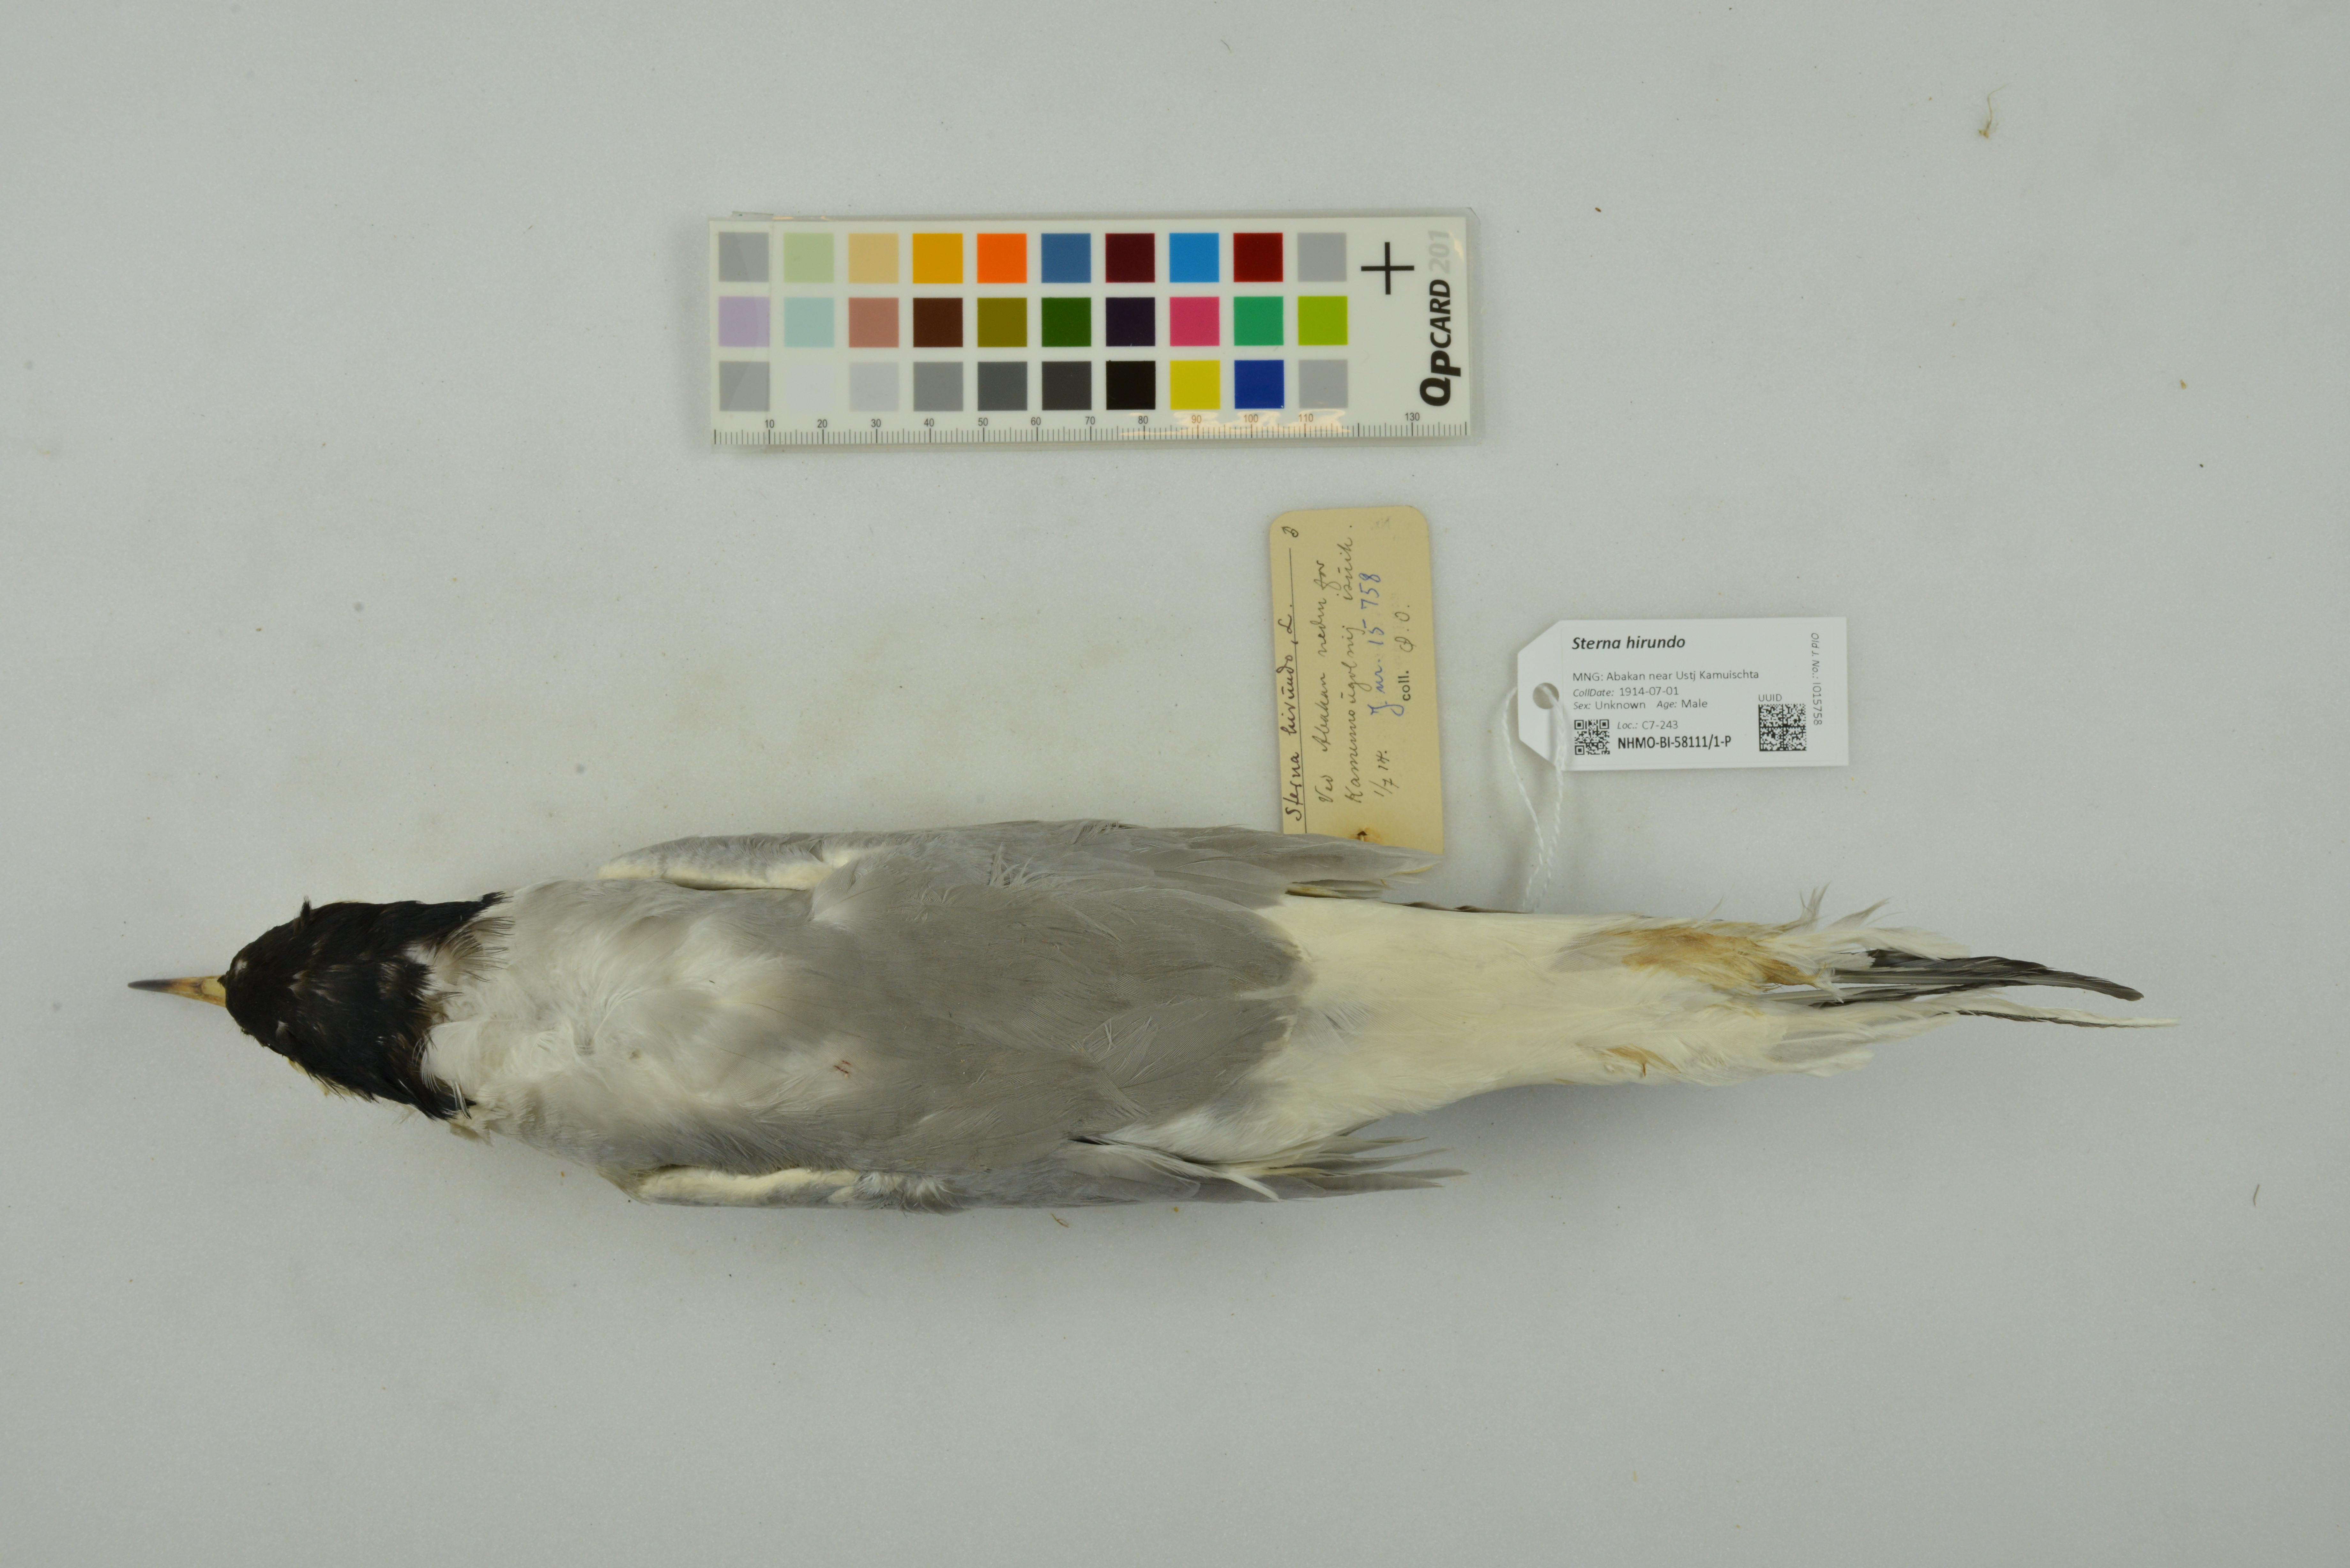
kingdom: Animalia
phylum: Chordata
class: Aves
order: Charadriiformes
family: Laridae
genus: Sterna
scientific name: Sterna hirundo
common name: Common tern
